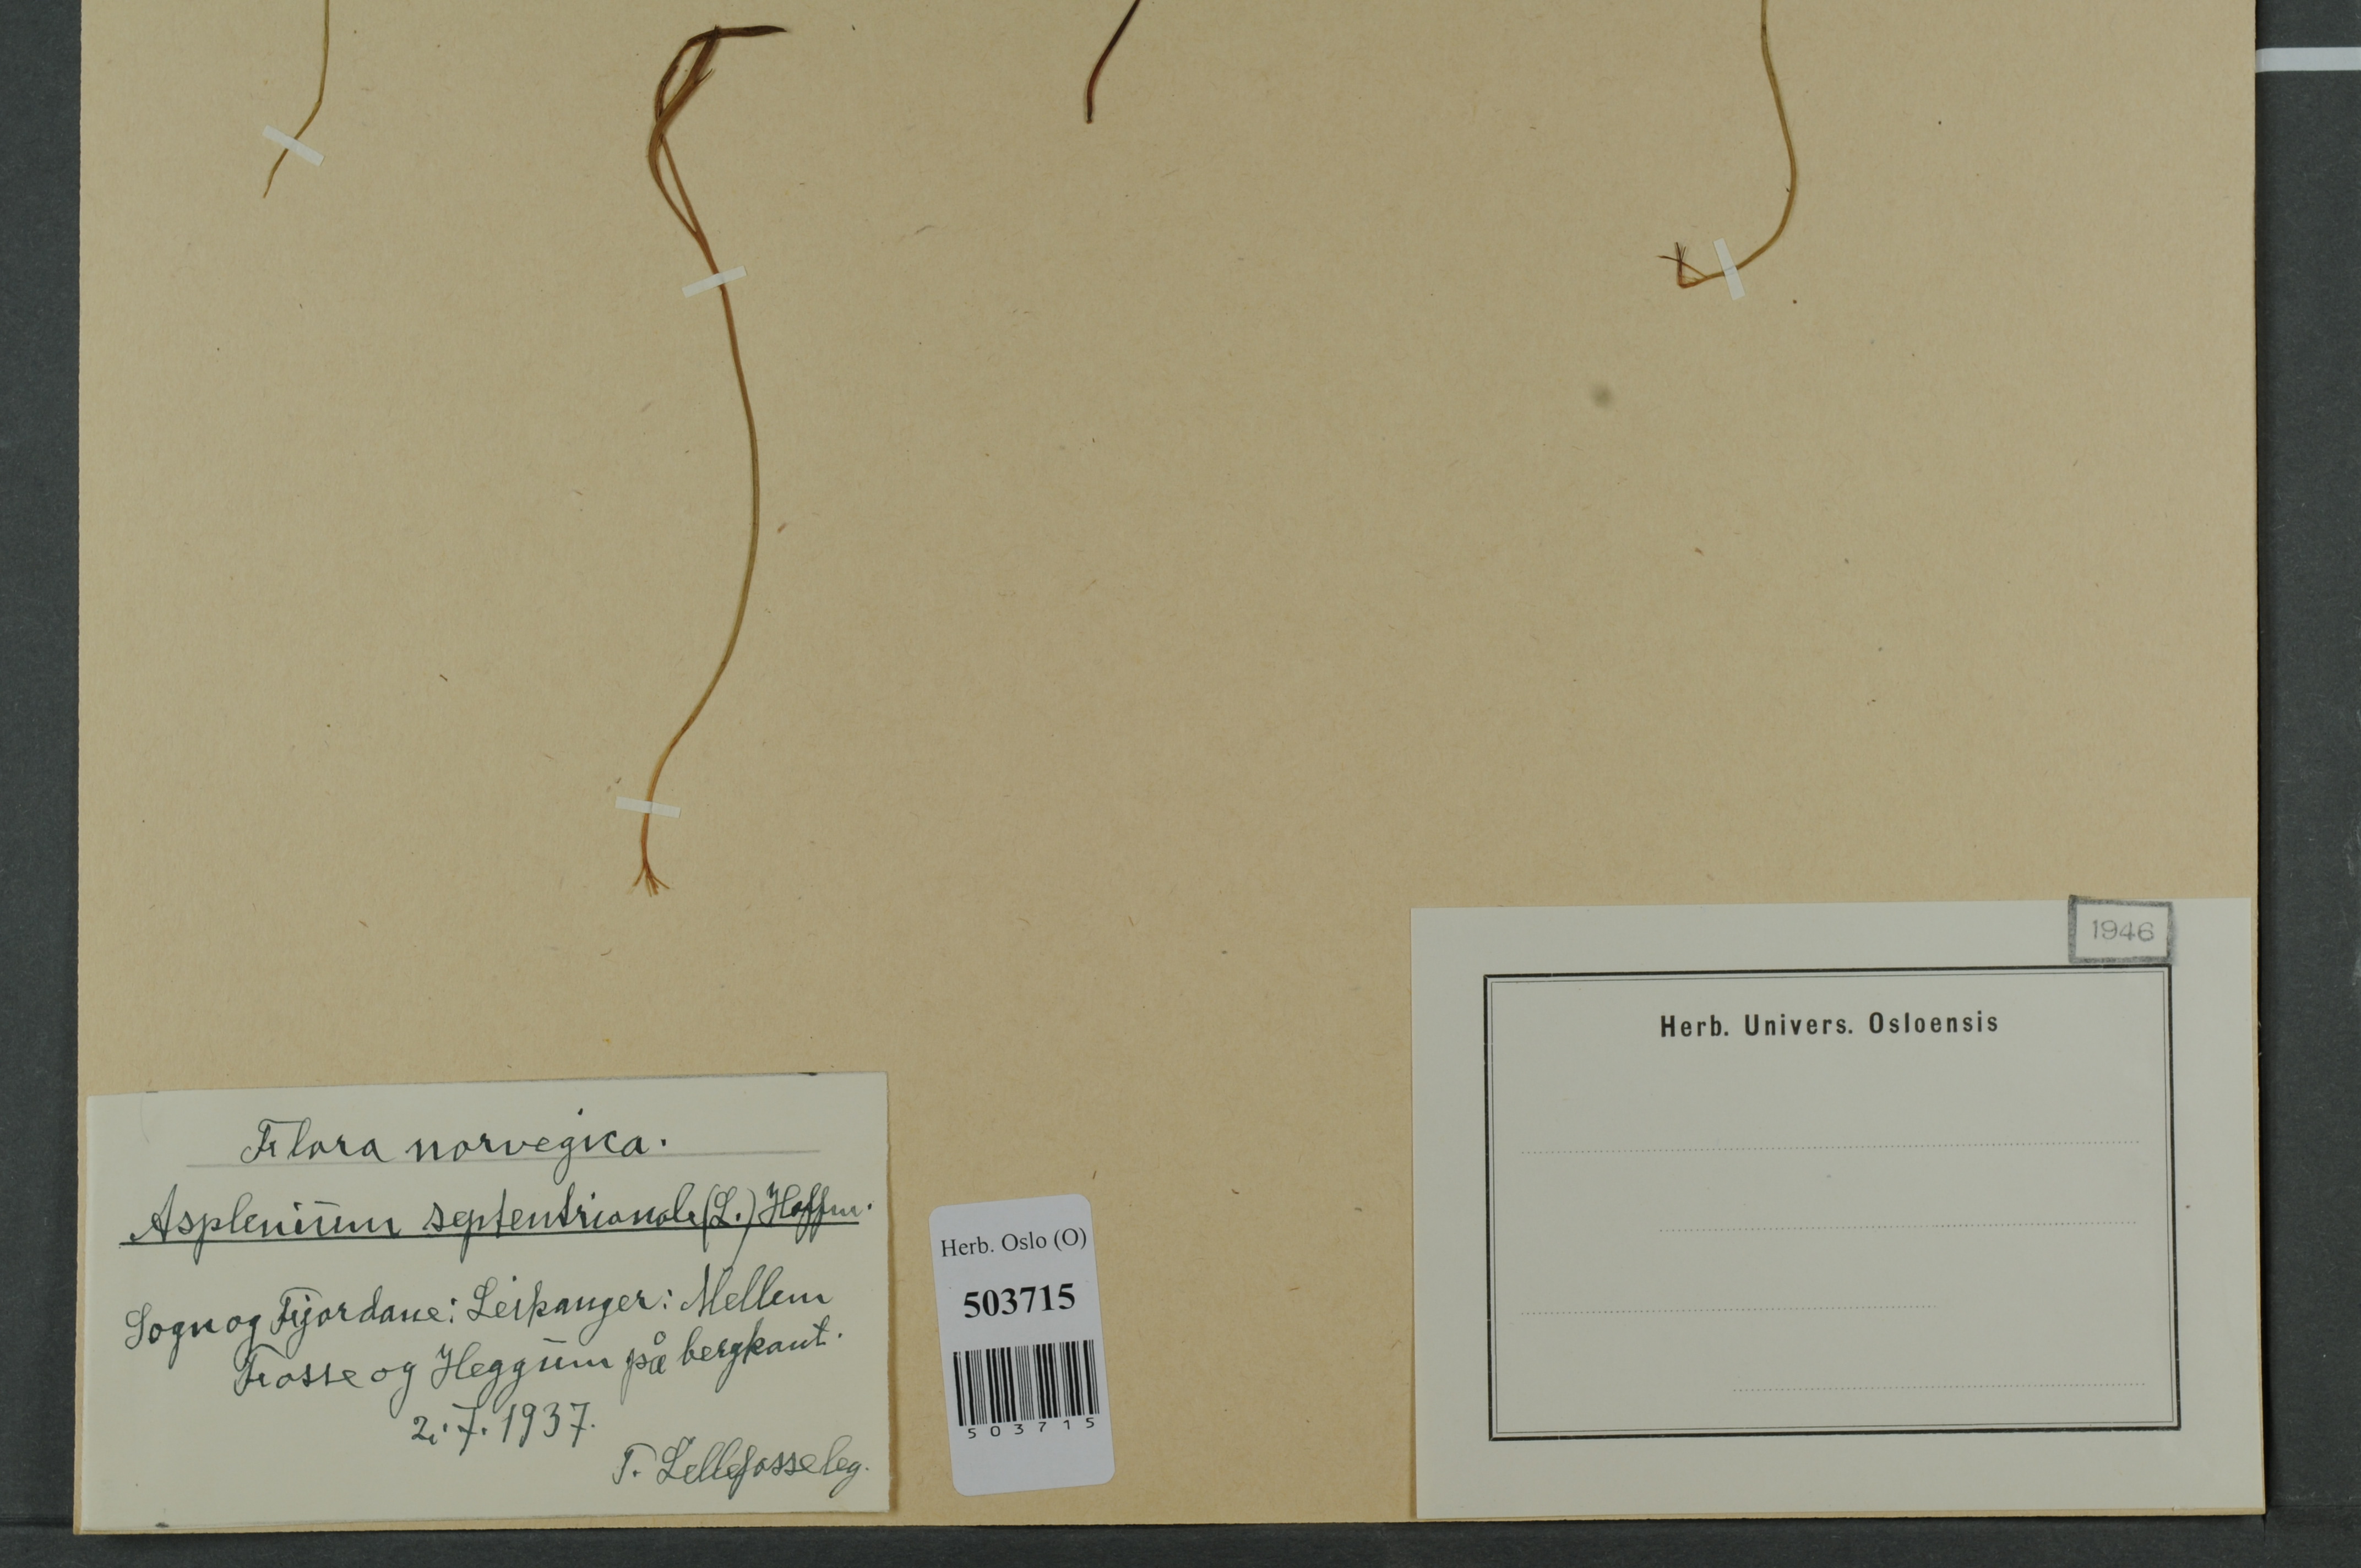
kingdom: Plantae
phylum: Tracheophyta
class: Polypodiopsida
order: Polypodiales
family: Aspleniaceae
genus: Asplenium
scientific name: Asplenium septentrionale
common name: Forked spleenwort
